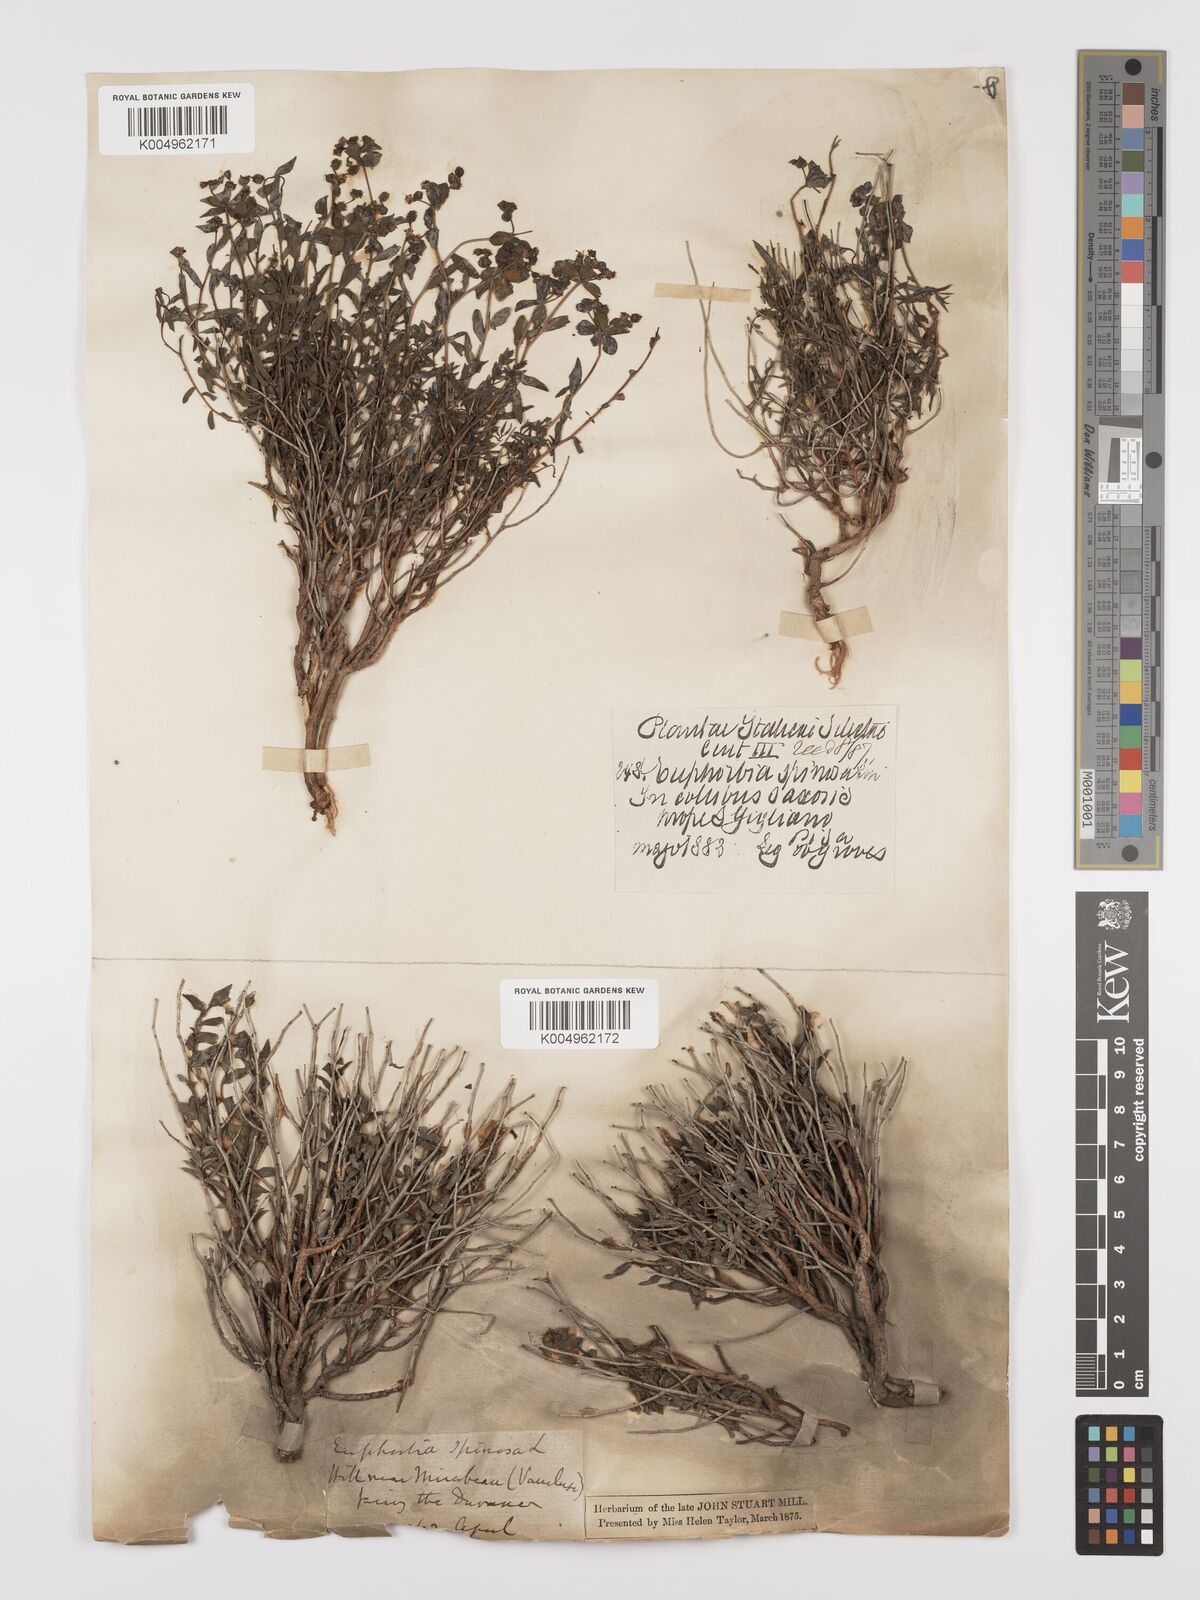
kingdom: Plantae
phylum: Tracheophyta
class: Magnoliopsida
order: Malpighiales
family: Euphorbiaceae
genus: Euphorbia
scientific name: Euphorbia spinosa
